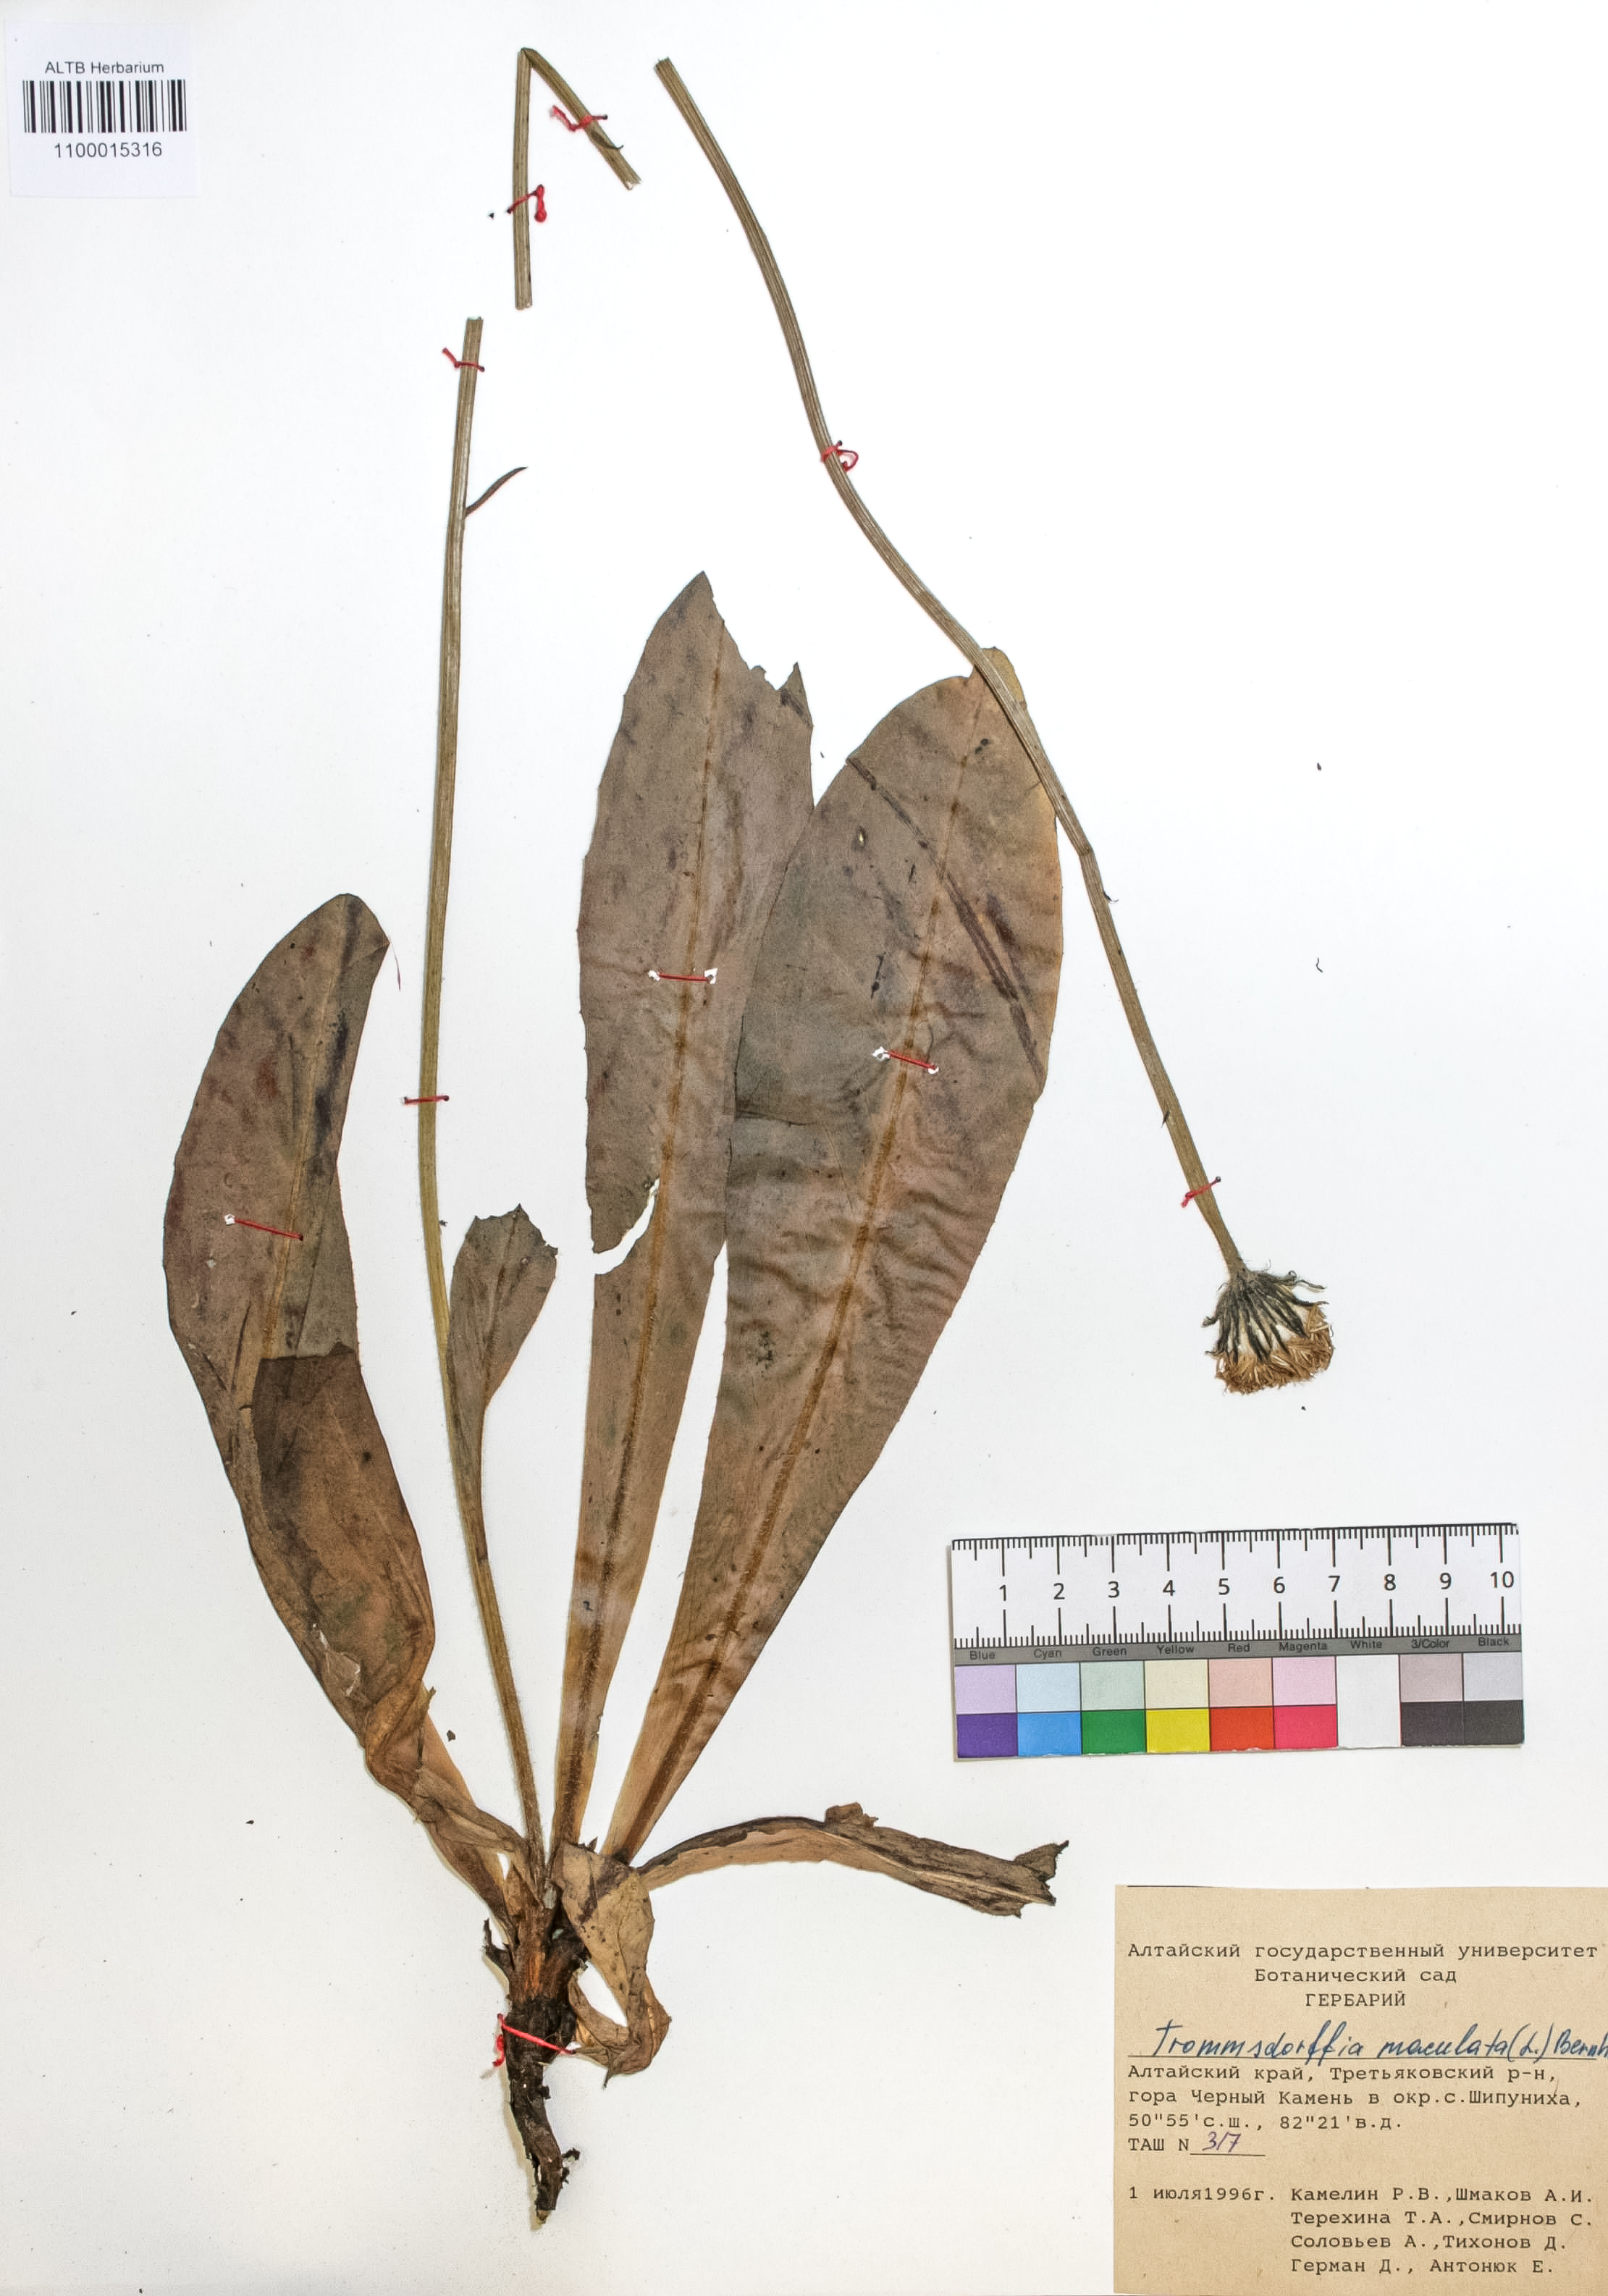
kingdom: Plantae
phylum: Tracheophyta
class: Magnoliopsida
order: Asterales
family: Asteraceae
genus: Trommsdorffia
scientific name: Trommsdorffia maculata
